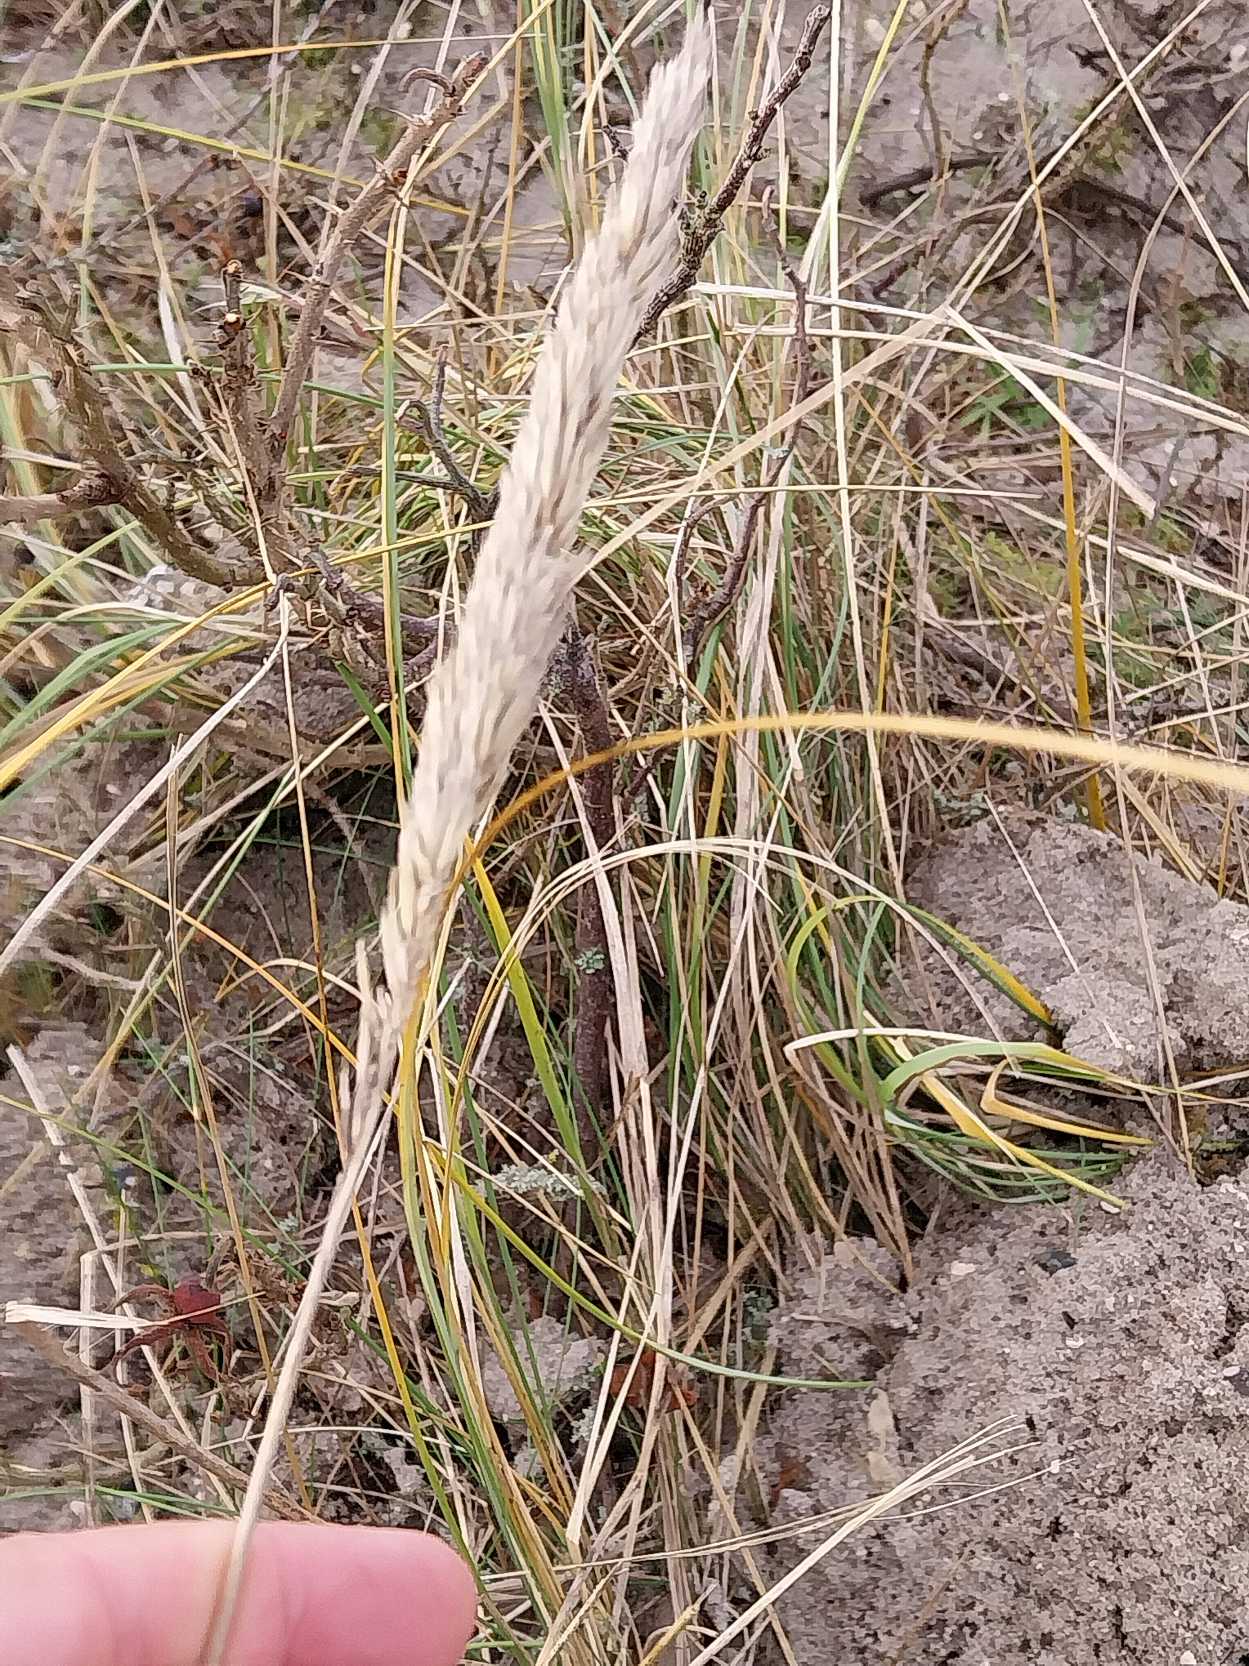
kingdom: Plantae
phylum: Tracheophyta
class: Liliopsida
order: Poales
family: Poaceae
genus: Calamagrostis
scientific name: Calamagrostis arenaria
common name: Sand-hjælme
